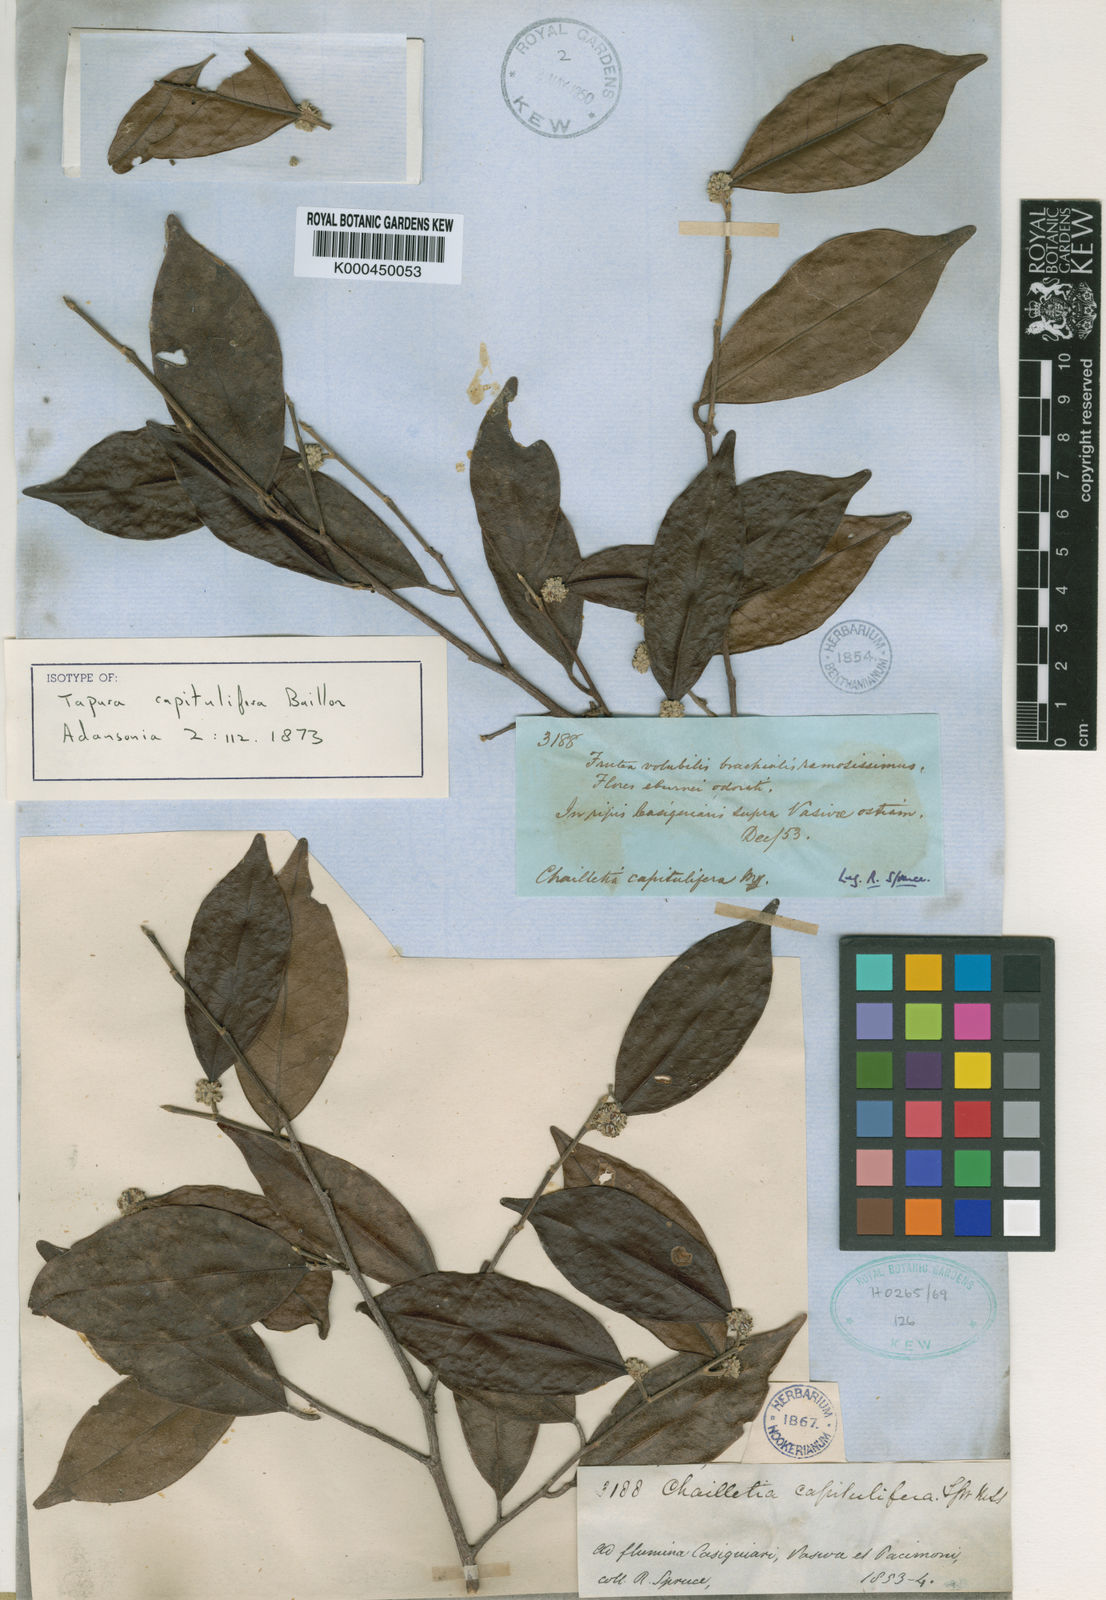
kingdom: Plantae
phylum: Tracheophyta
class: Magnoliopsida
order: Malpighiales
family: Dichapetalaceae
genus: Tapura
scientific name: Tapura capitulifera
